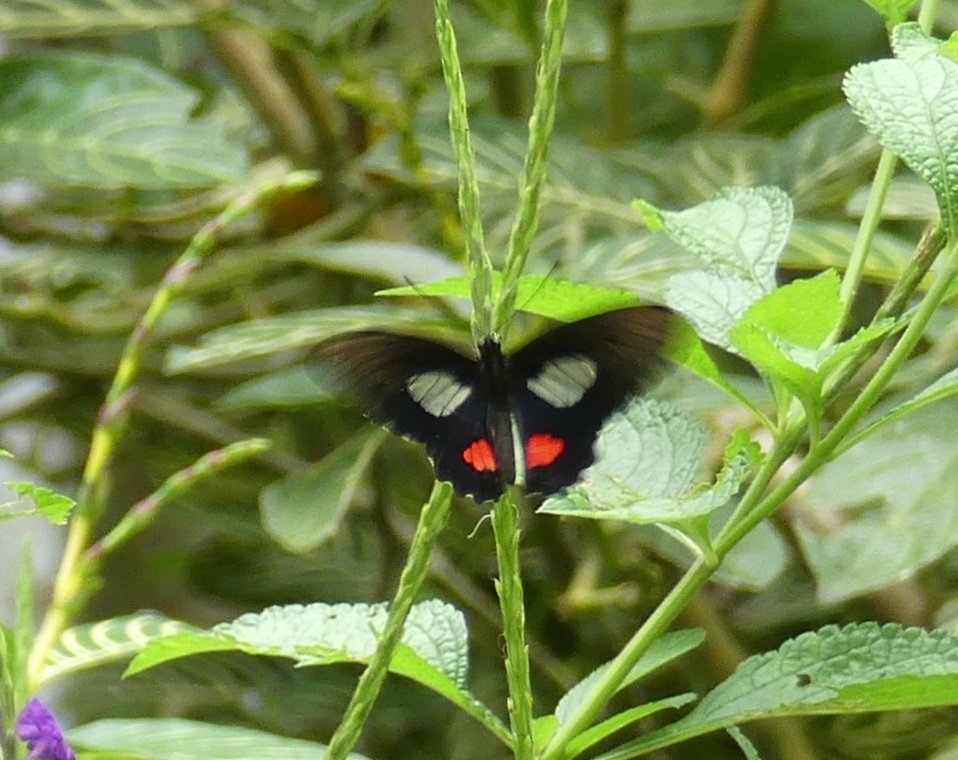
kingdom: Animalia
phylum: Arthropoda
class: Insecta
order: Lepidoptera
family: Papilionidae
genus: Parides
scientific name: Parides iphidamas
